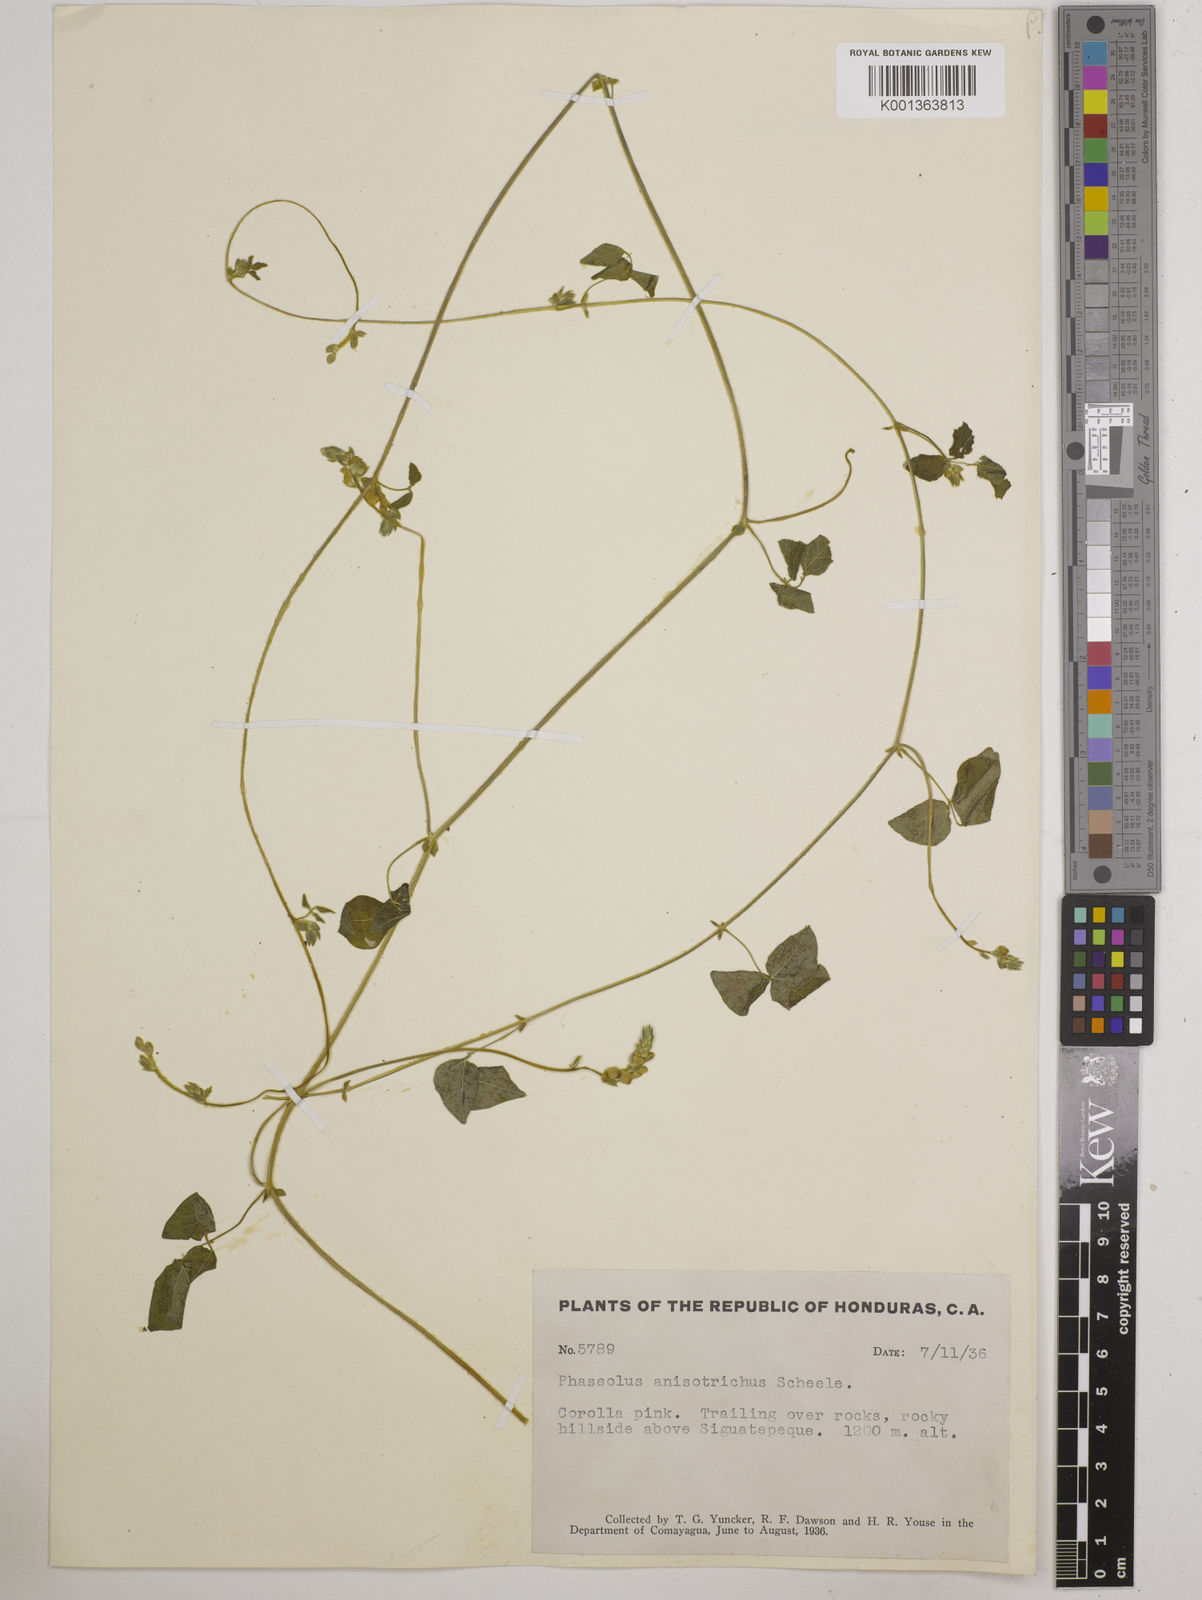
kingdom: Plantae
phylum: Tracheophyta
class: Magnoliopsida
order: Fabales
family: Fabaceae
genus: Phaseolus
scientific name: Phaseolus
